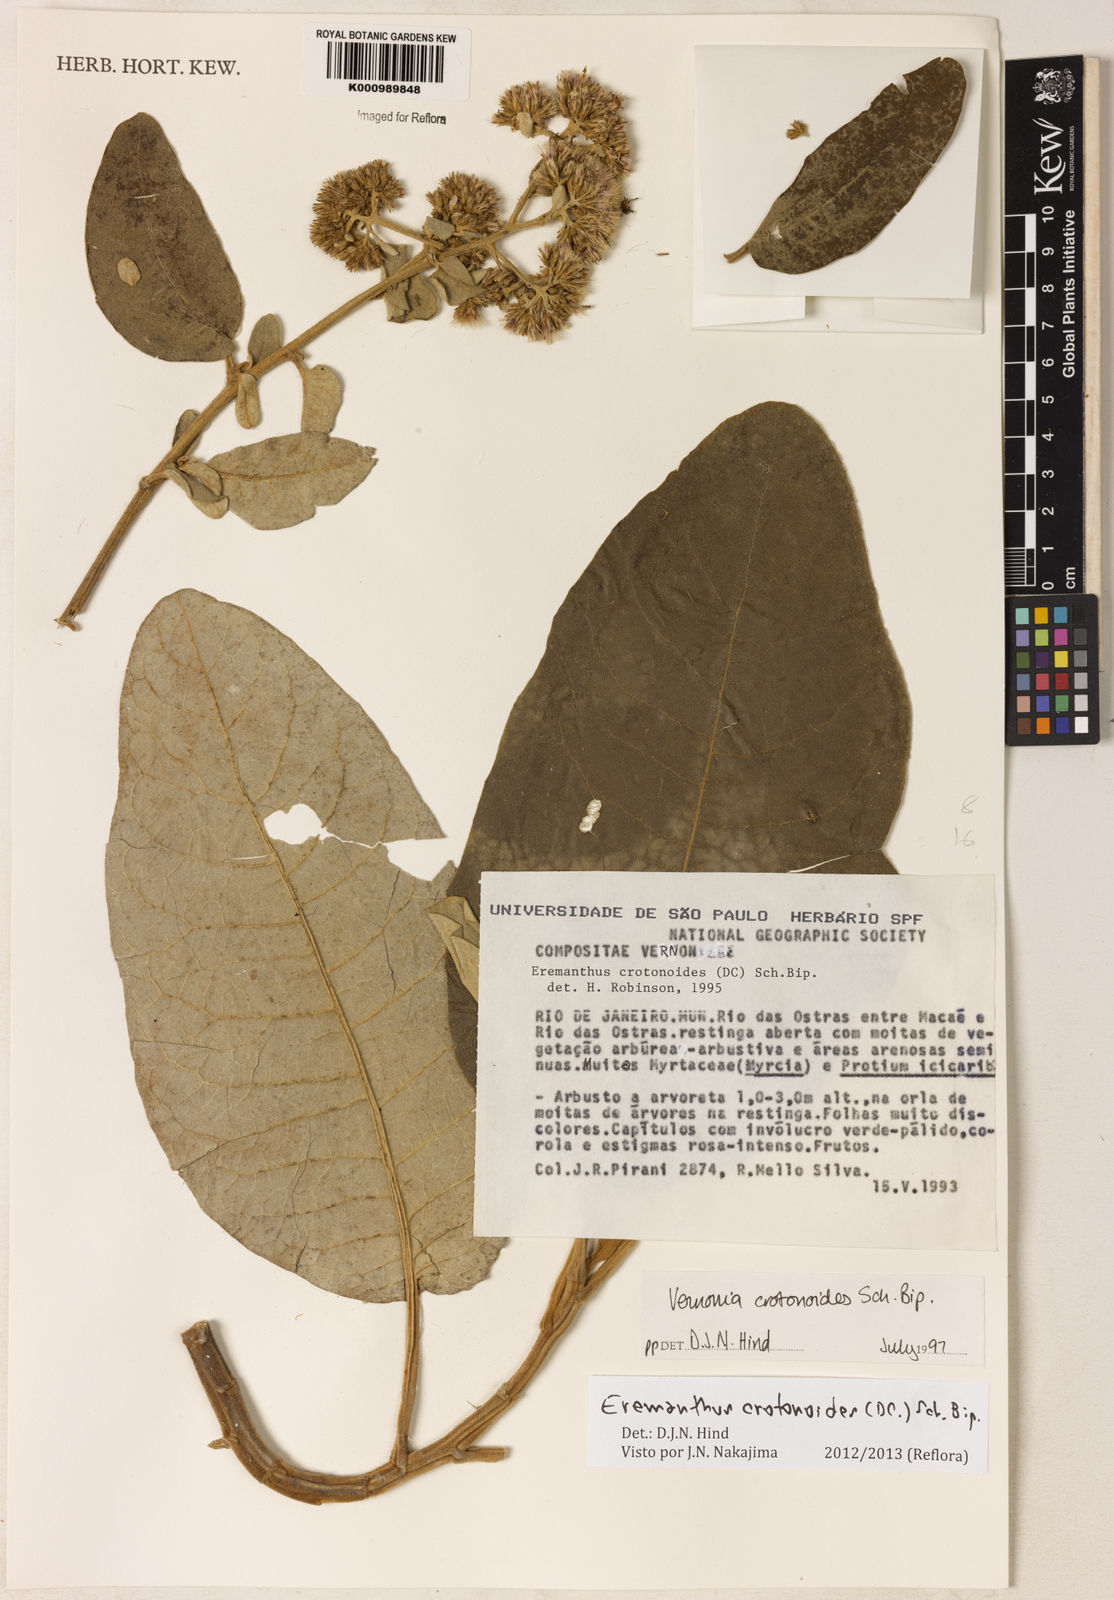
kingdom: Plantae
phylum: Tracheophyta
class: Magnoliopsida
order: Asterales
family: Asteraceae
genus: Eremanthus
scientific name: Eremanthus crotonoides
